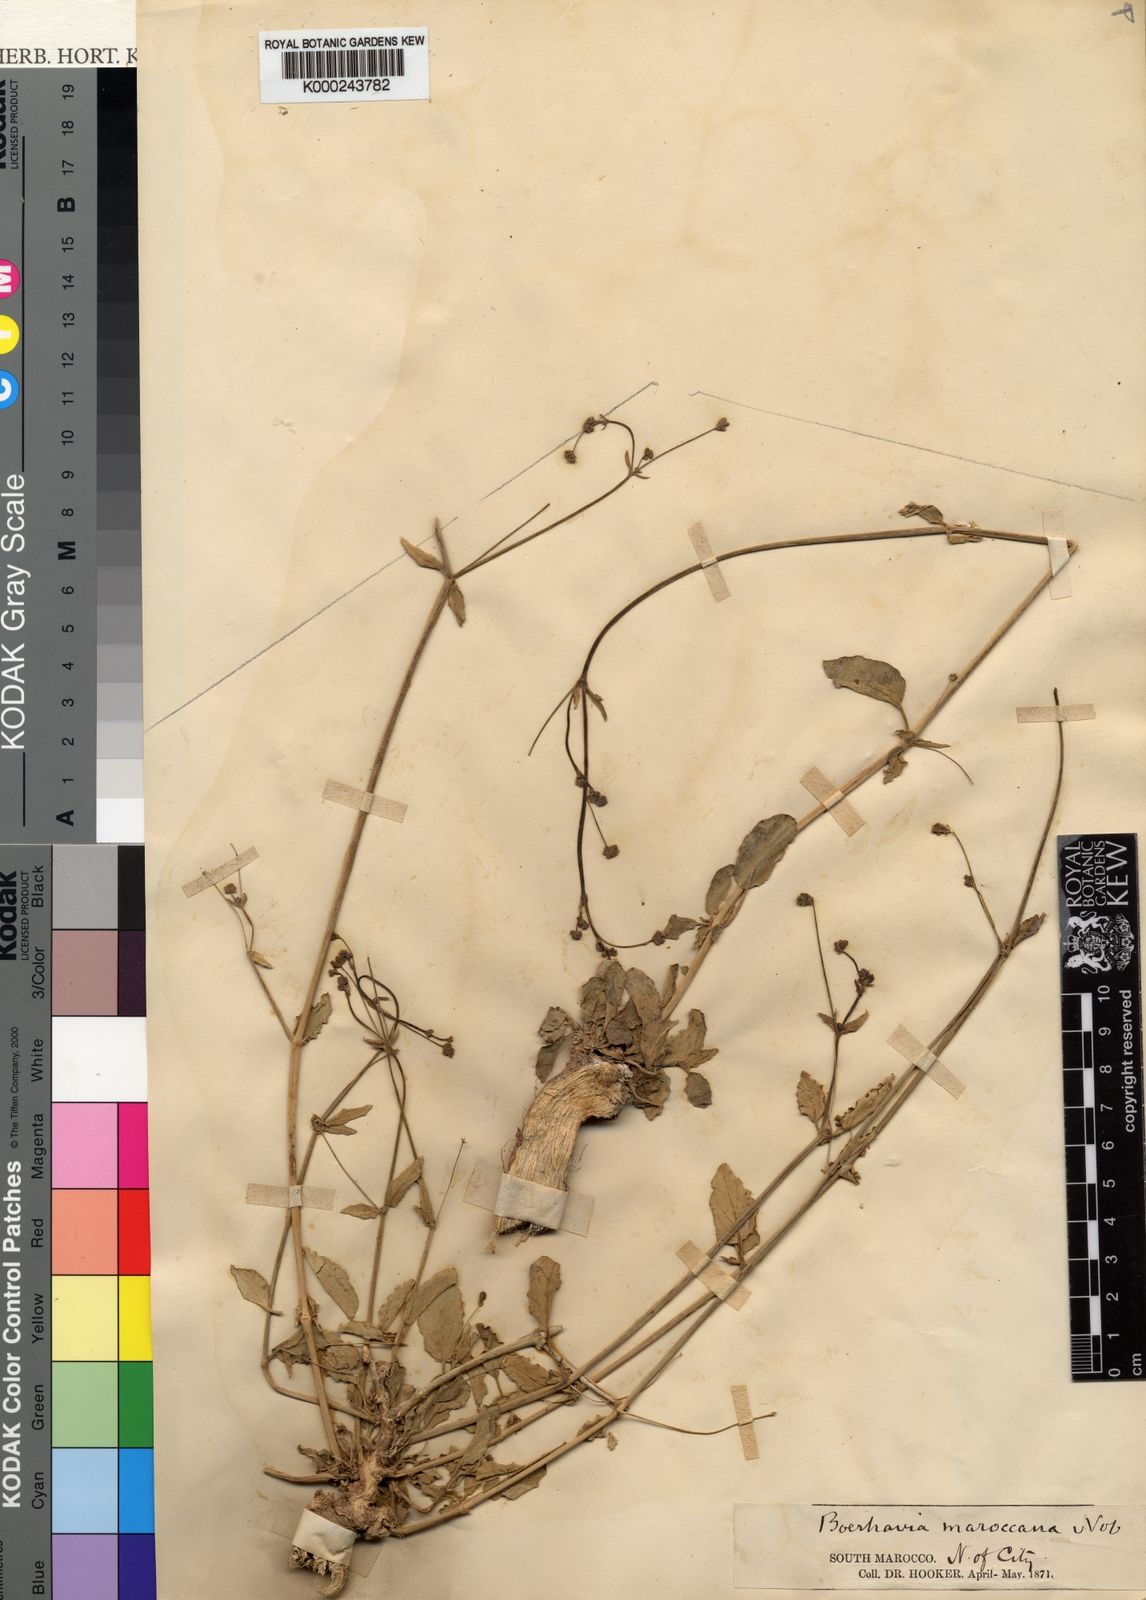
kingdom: Plantae
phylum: Tracheophyta
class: Magnoliopsida
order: Caryophyllales
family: Nyctaginaceae
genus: Boerhavia
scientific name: Boerhavia coccinea
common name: Scarlet spiderling
